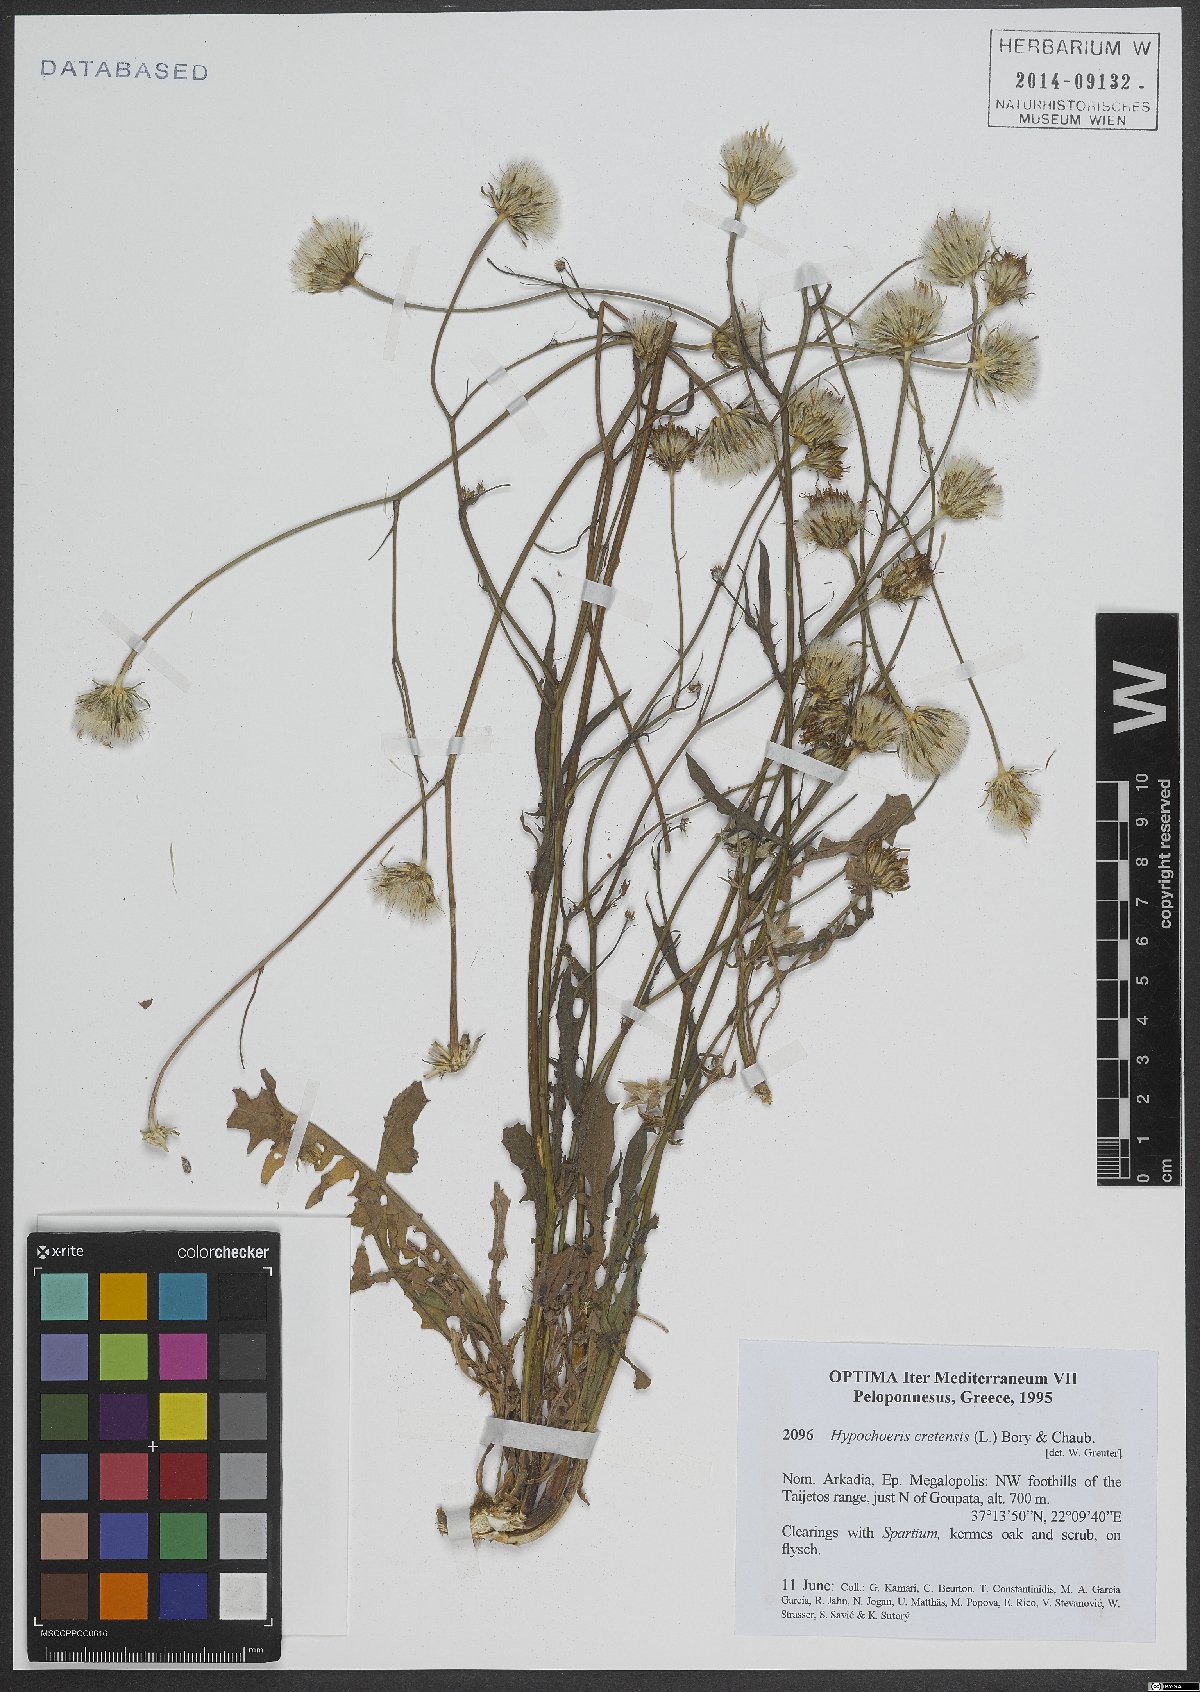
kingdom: Plantae
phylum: Tracheophyta
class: Magnoliopsida
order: Asterales
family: Asteraceae
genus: Hypochaeris
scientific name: Hypochaeris cretensis
